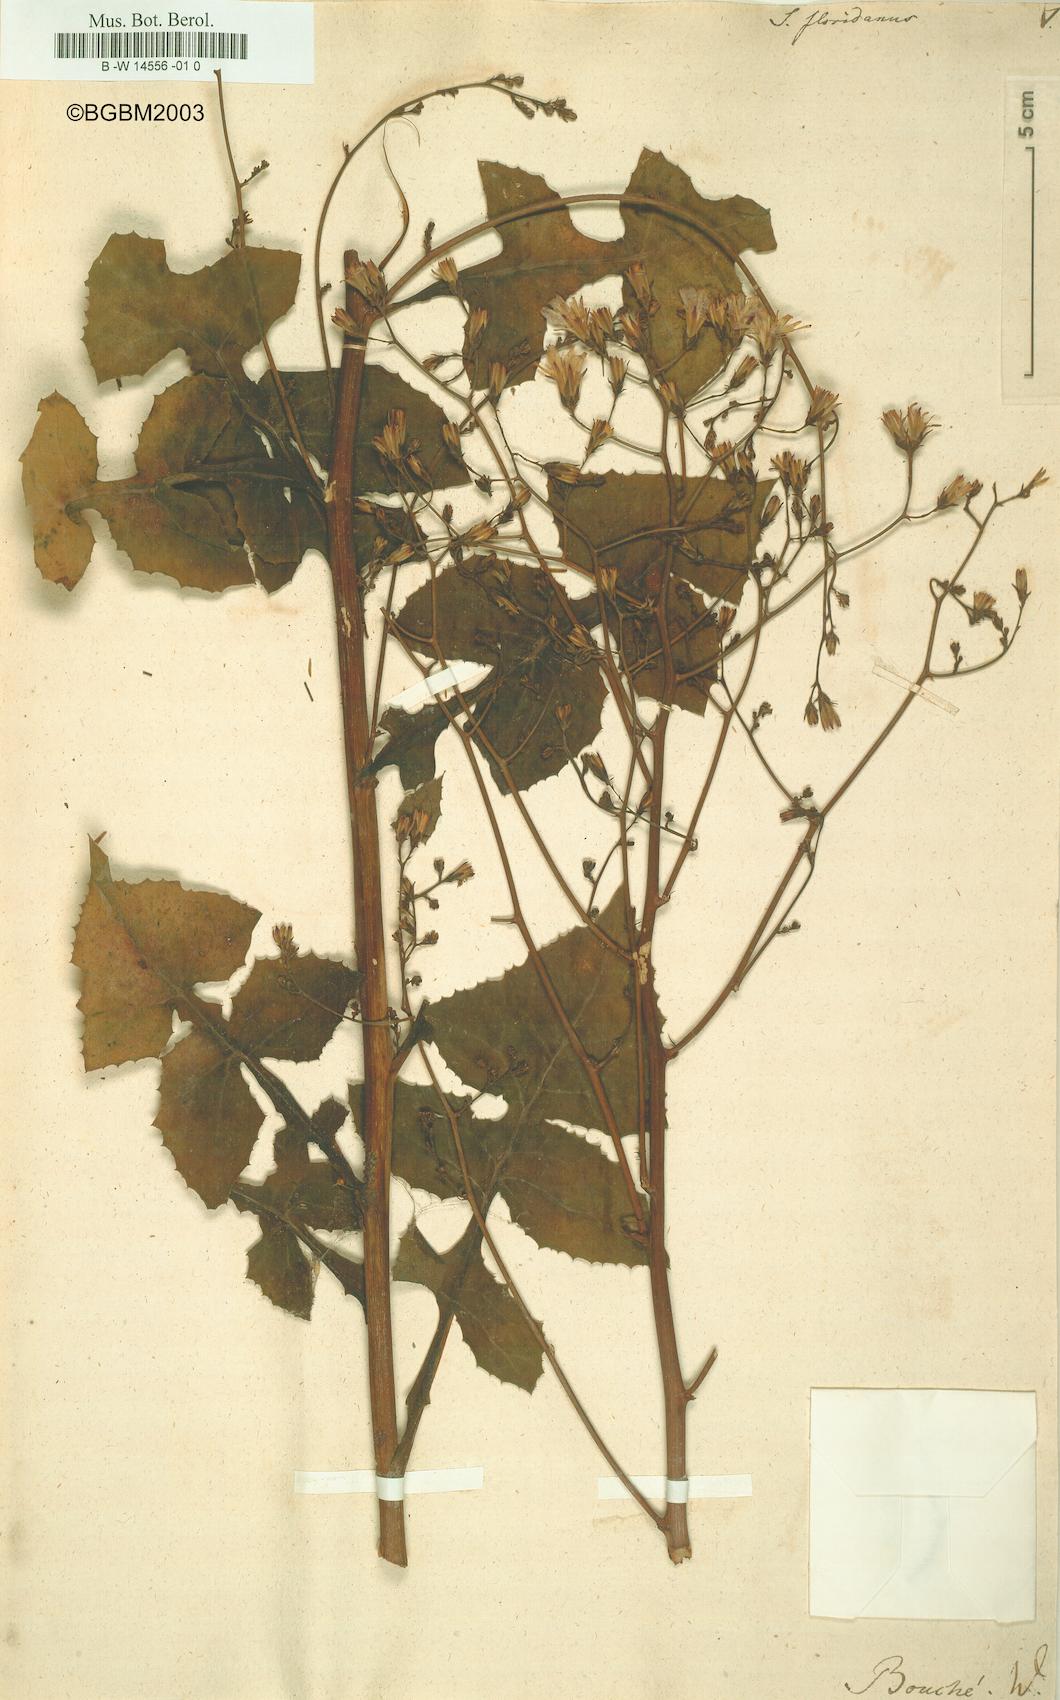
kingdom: Plantae
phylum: Tracheophyta
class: Magnoliopsida
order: Asterales
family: Asteraceae
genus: Sonchus
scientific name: Sonchus floridanus
